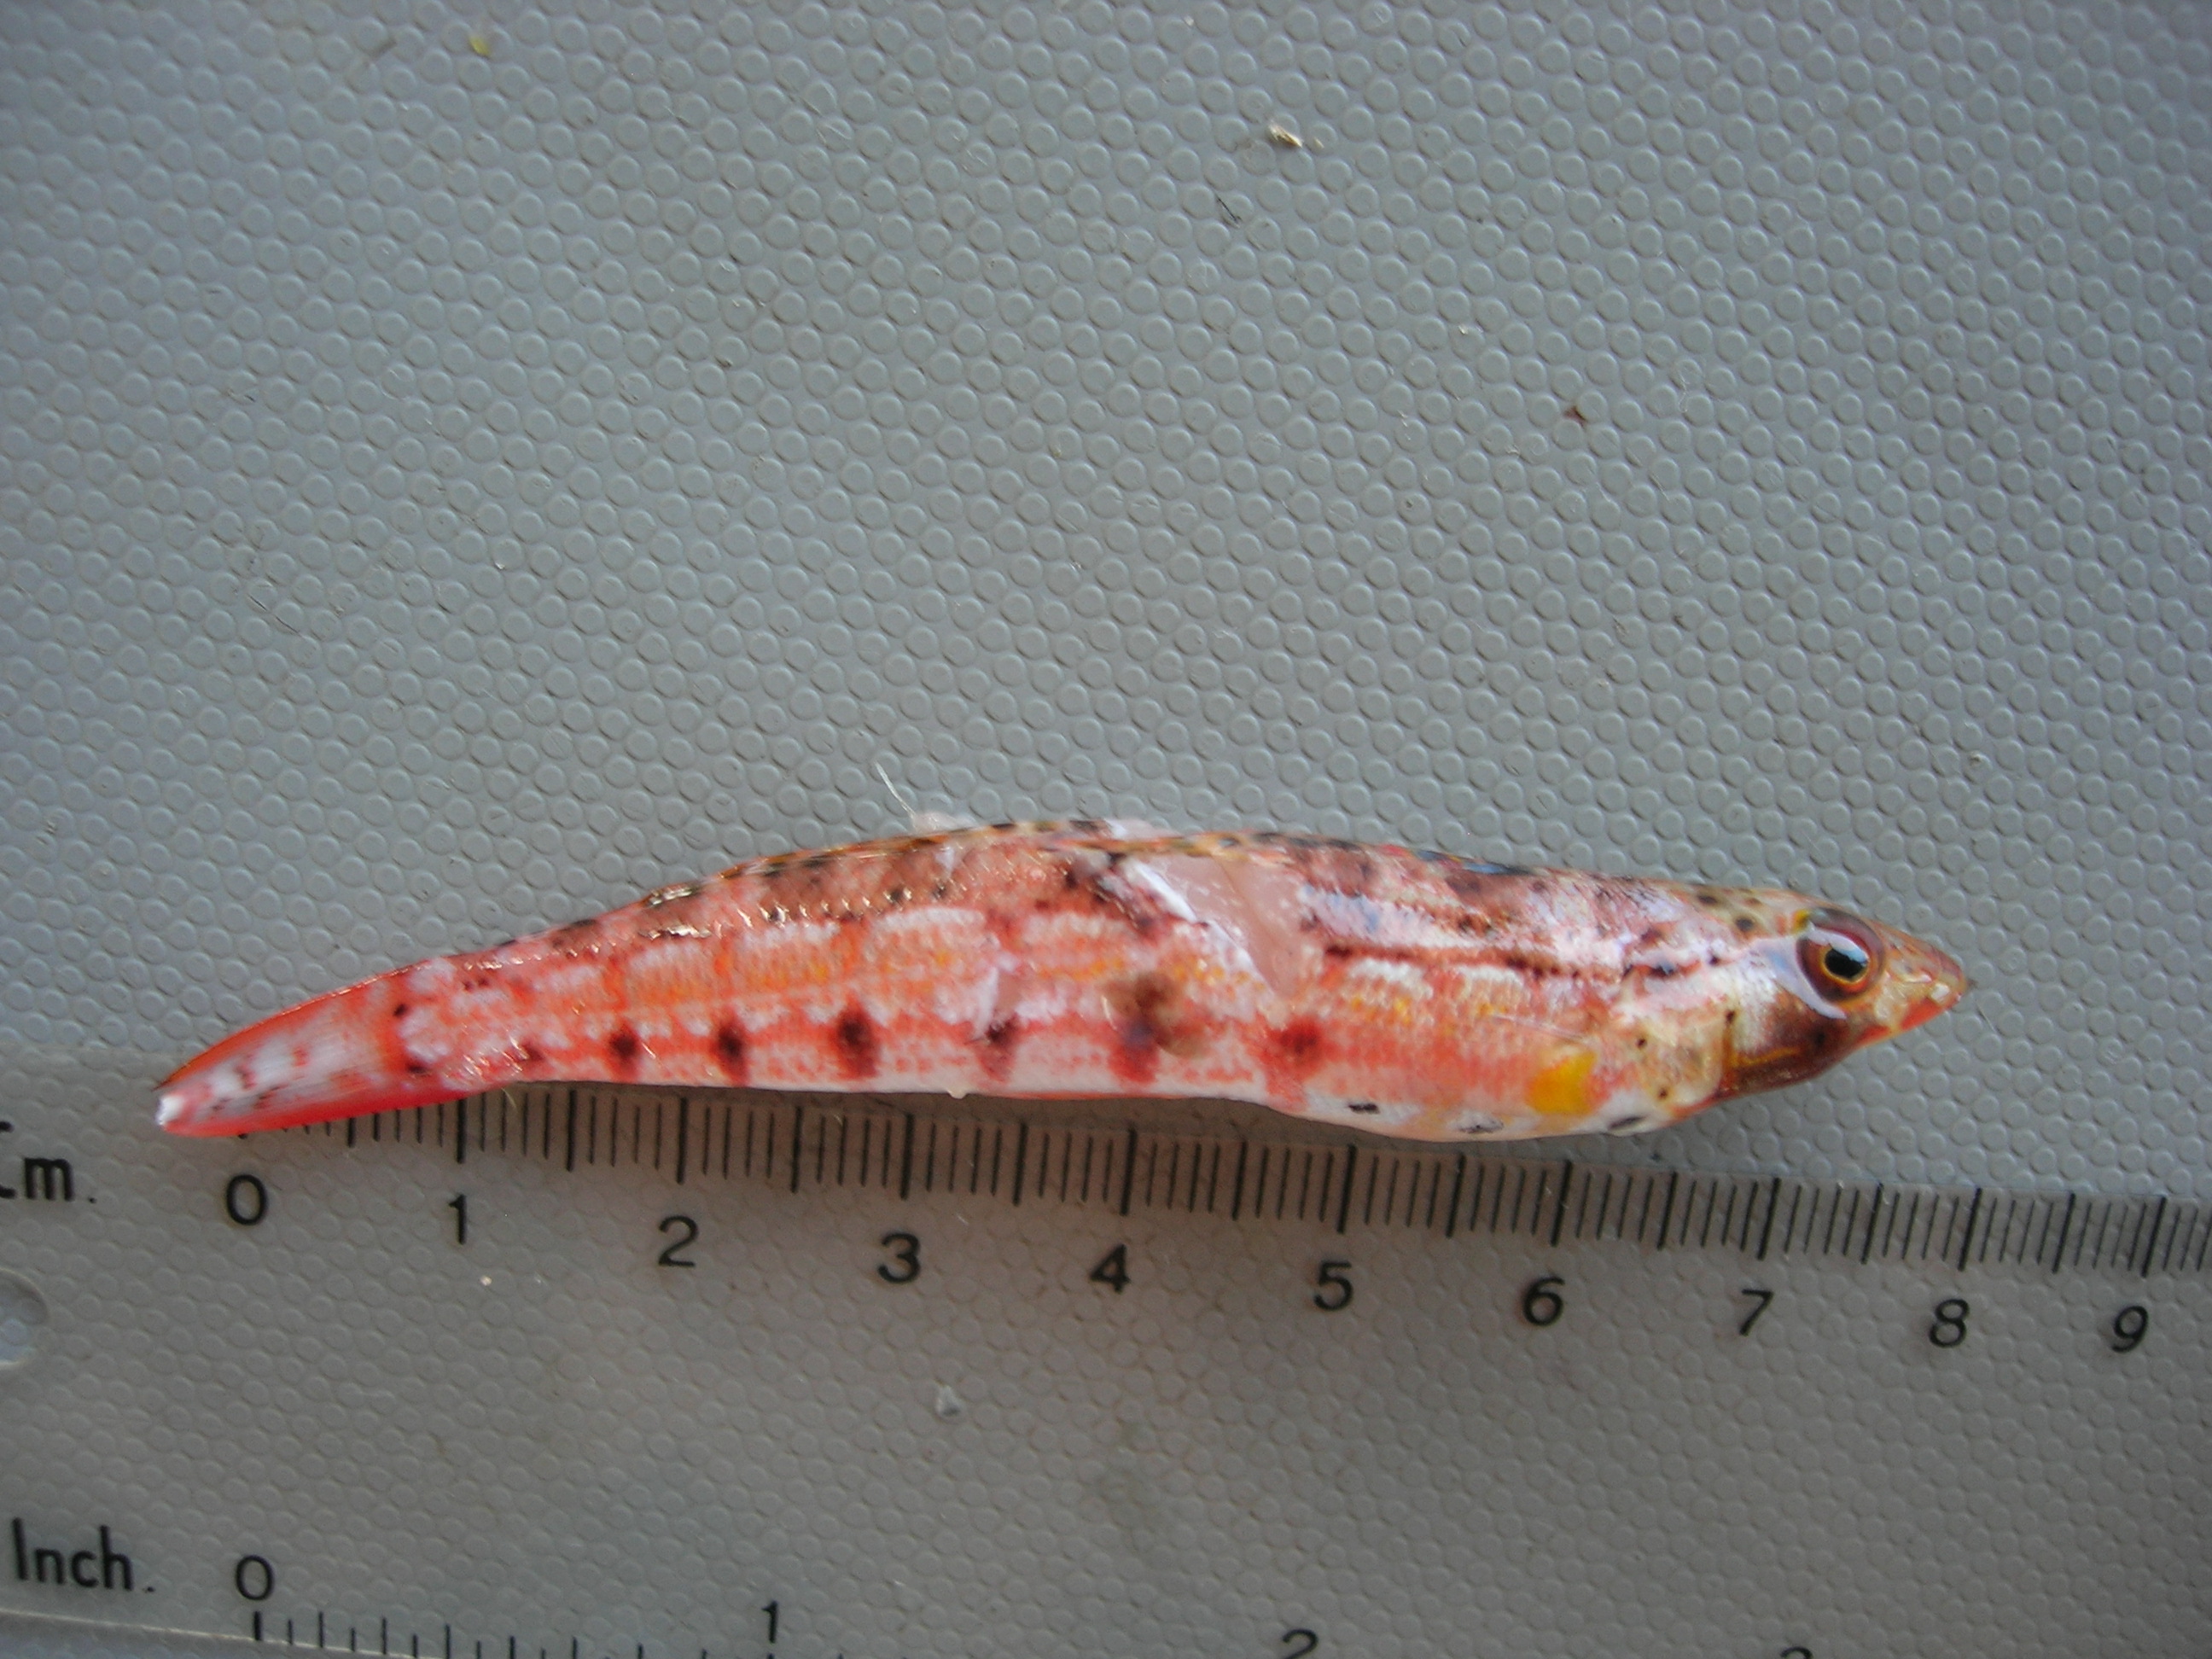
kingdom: Animalia
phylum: Chordata
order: Perciformes
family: Pinguipedidae
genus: Parapercis
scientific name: Parapercis punctulata
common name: Spotted sandperch
